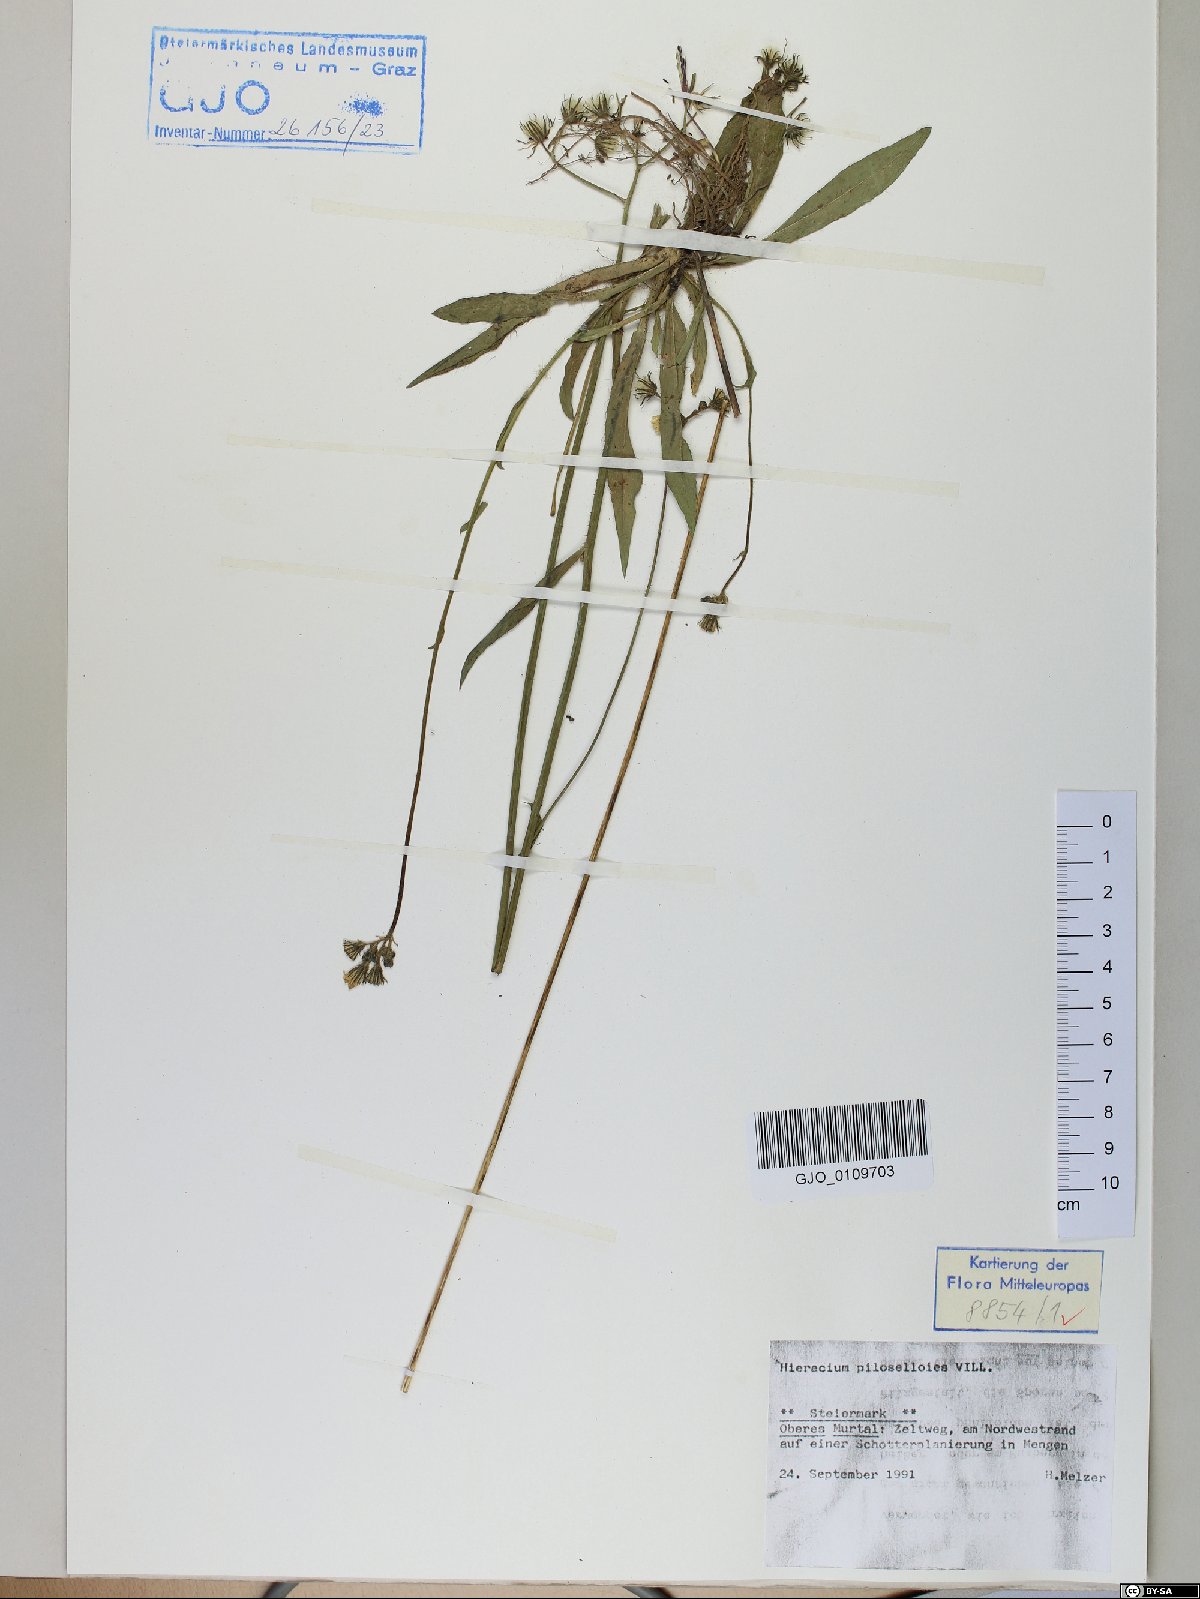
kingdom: Plantae
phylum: Tracheophyta
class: Magnoliopsida
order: Asterales
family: Asteraceae
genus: Pilosella
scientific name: Pilosella piloselloides
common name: Glaucous king-devil
